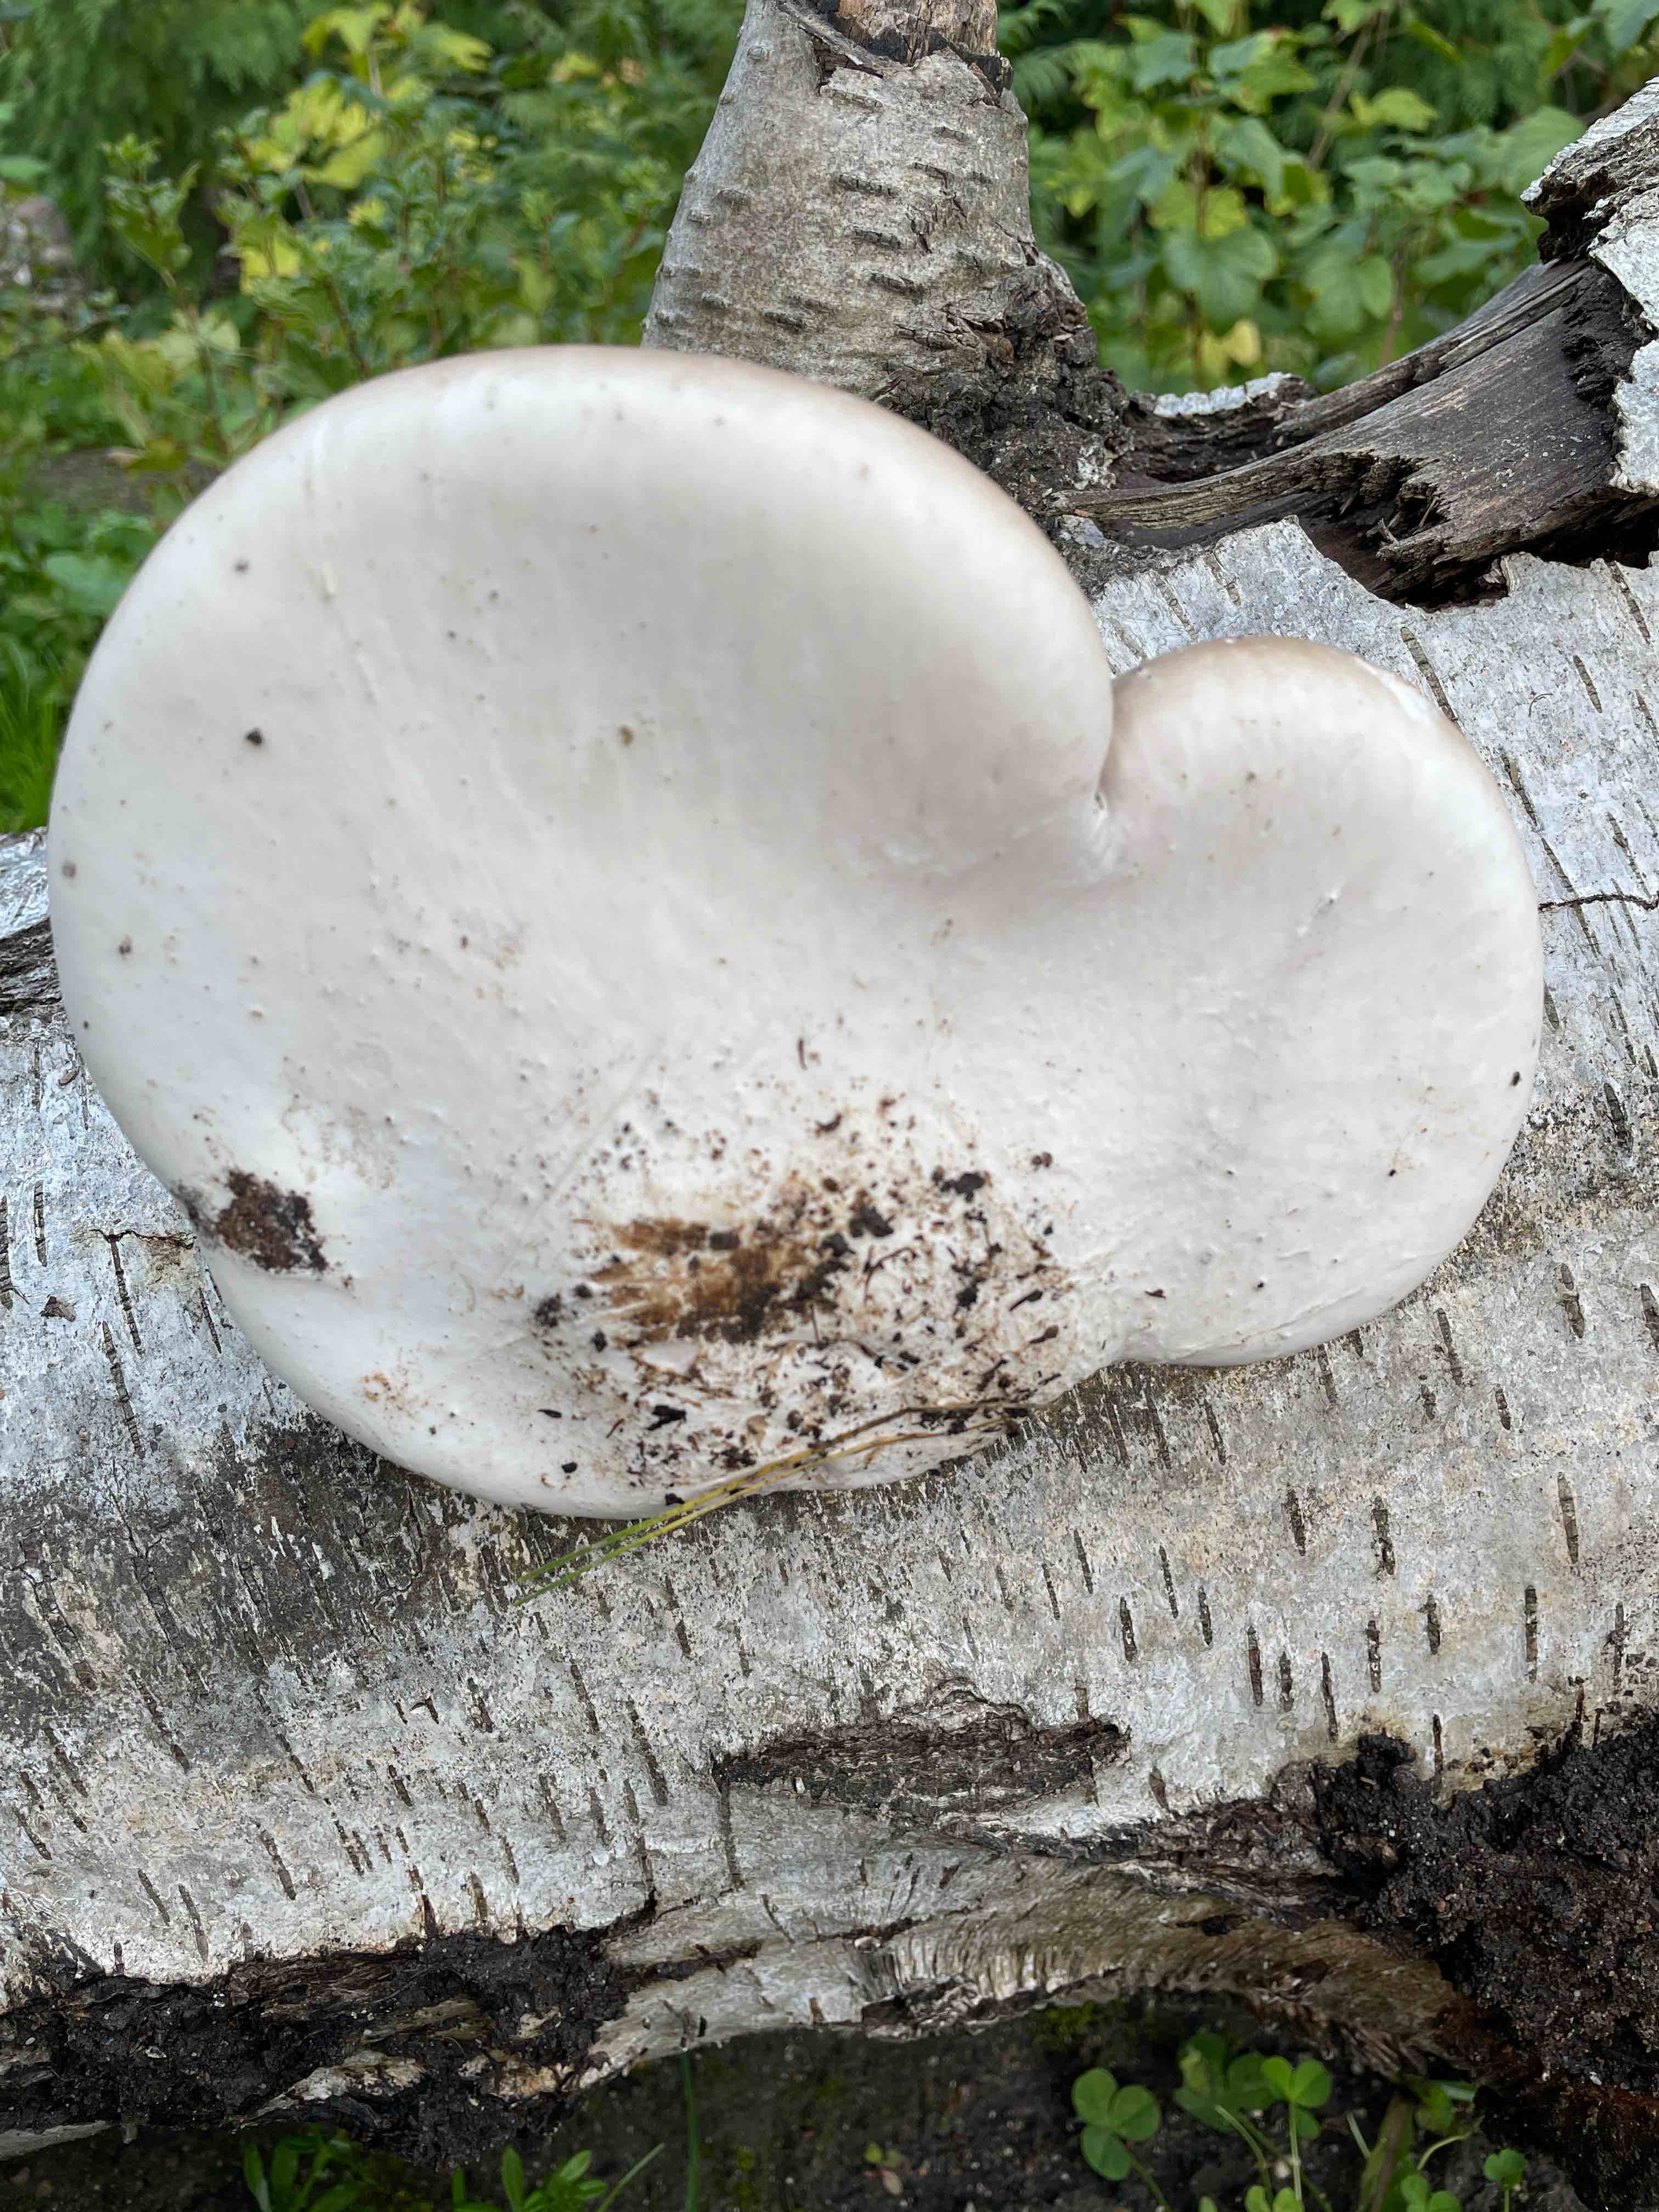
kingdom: Fungi
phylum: Basidiomycota
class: Agaricomycetes
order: Polyporales
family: Fomitopsidaceae
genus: Fomitopsis
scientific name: Fomitopsis betulina
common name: birkeporesvamp
